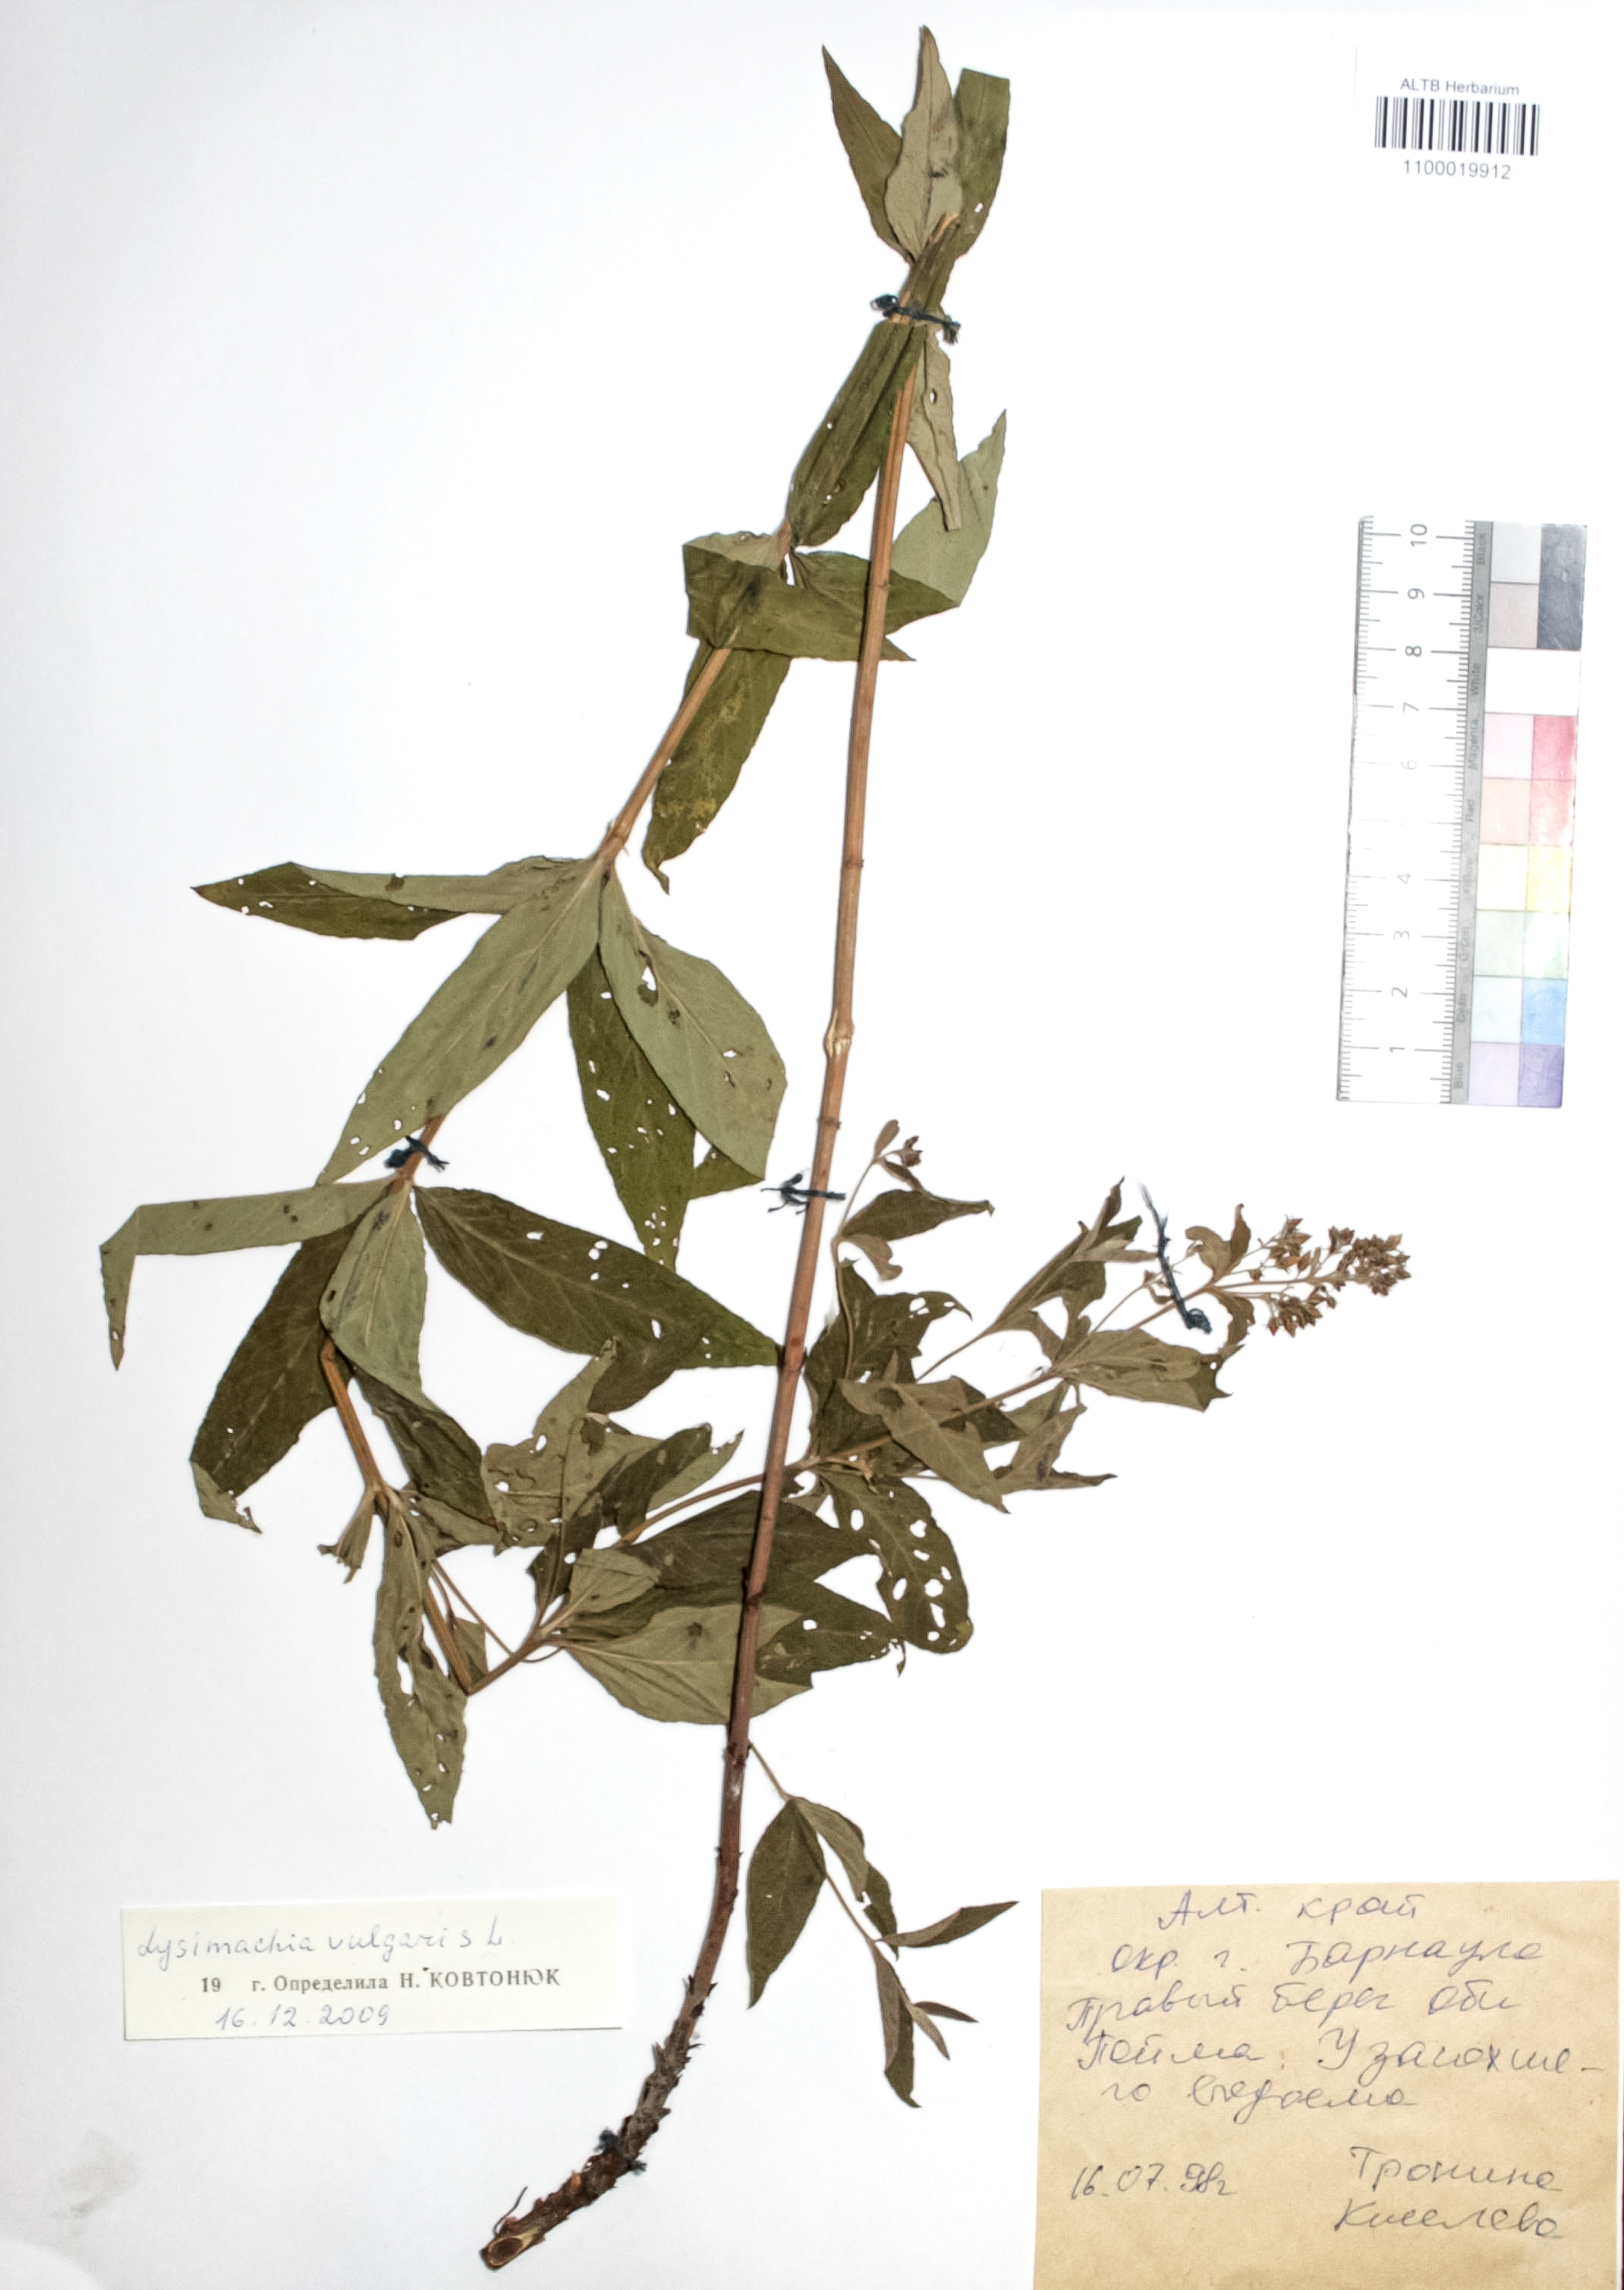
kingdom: Plantae
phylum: Tracheophyta
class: Magnoliopsida
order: Ericales
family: Primulaceae
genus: Lysimachia
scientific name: Lysimachia vulgaris
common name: Yellow loosestrife
